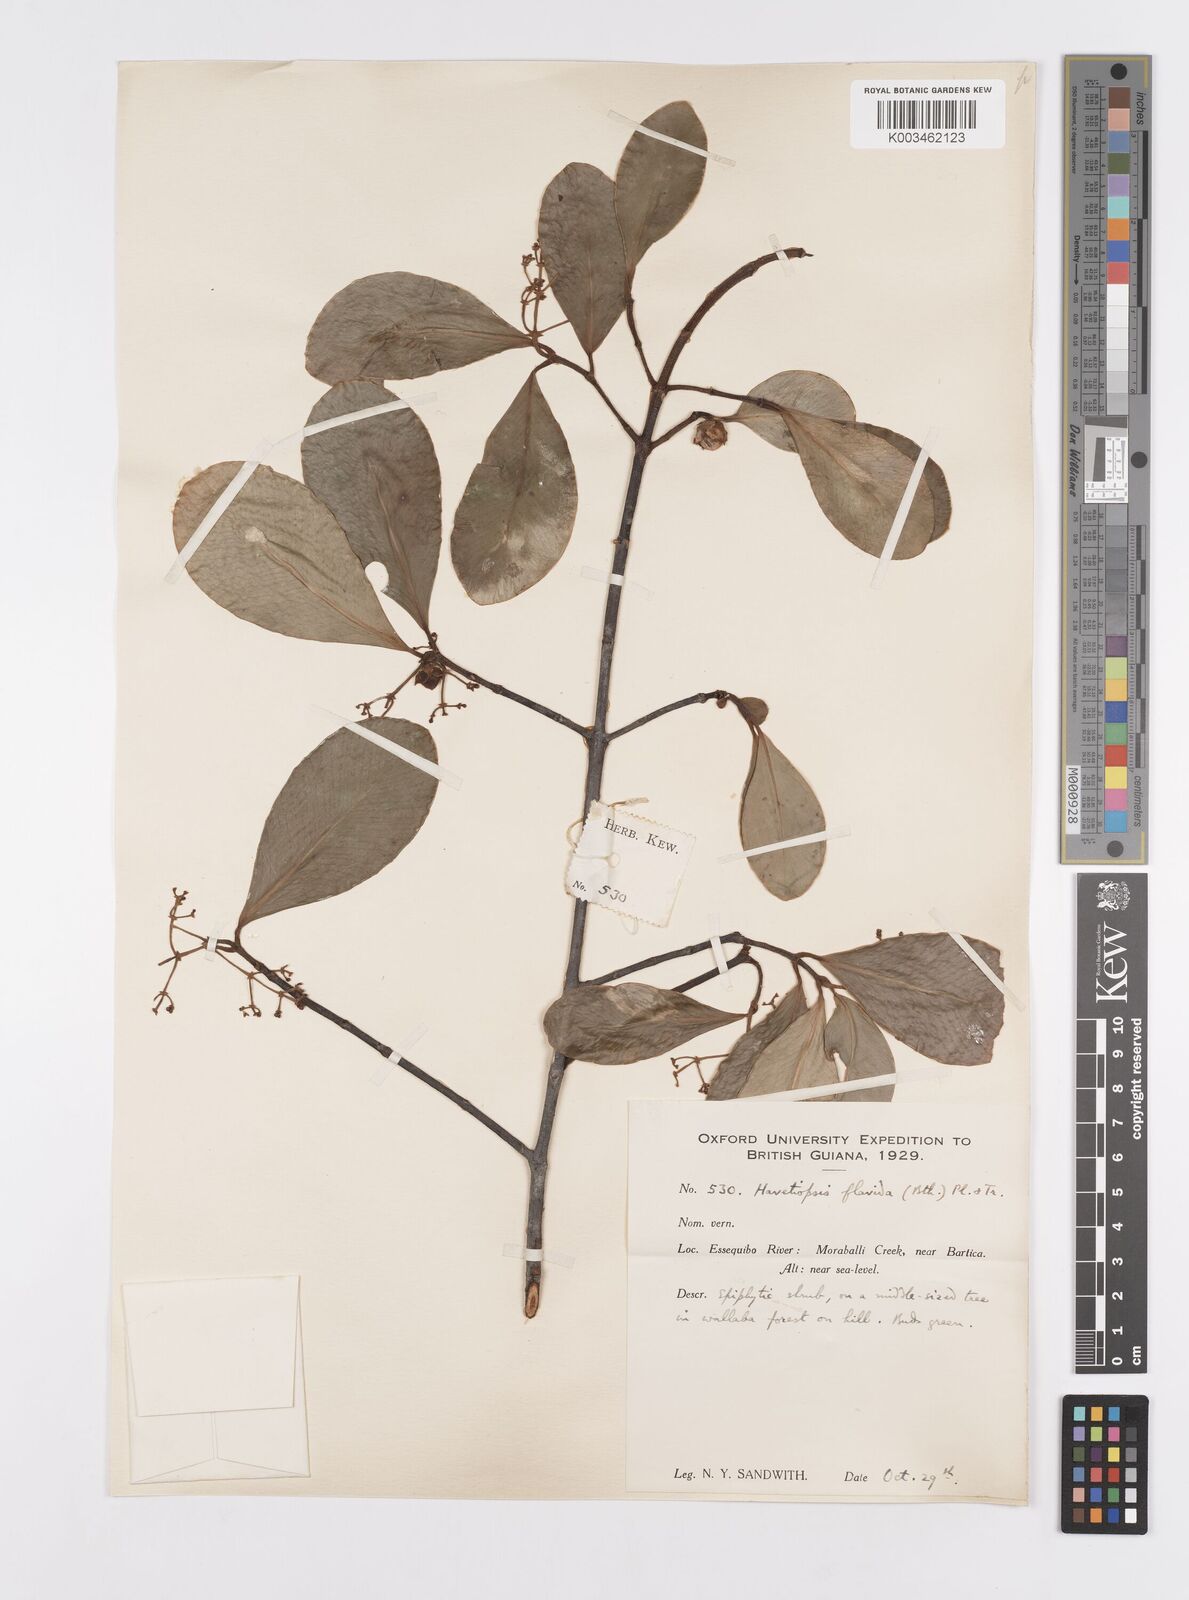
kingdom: Plantae
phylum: Tracheophyta
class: Magnoliopsida
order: Malpighiales
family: Clusiaceae
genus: Clusia
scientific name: Clusia flavida
